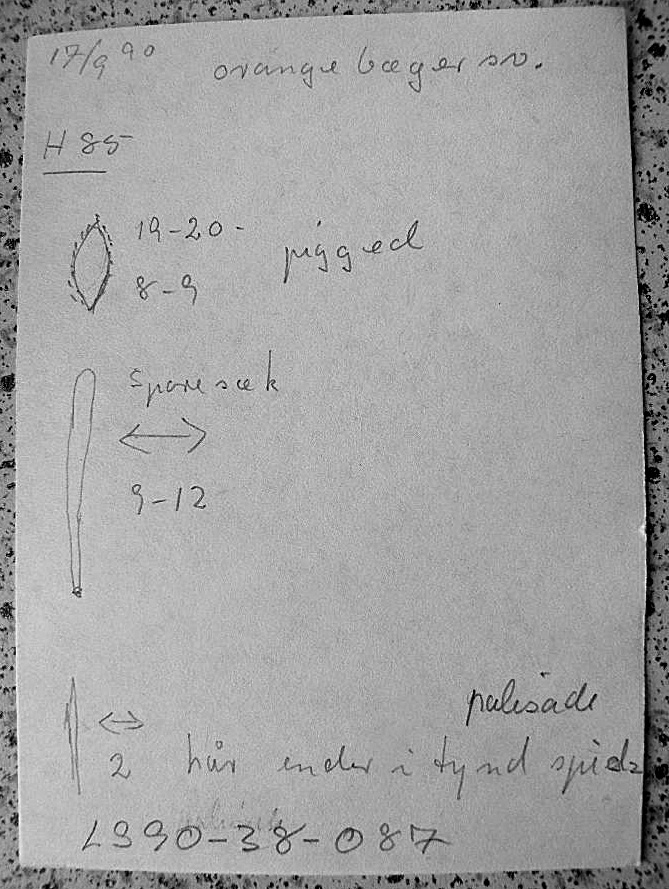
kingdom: Fungi
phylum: Ascomycota
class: Pezizomycetes
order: Pezizales
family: Pyronemataceae
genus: Aleuria
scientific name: Aleuria aurantia
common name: almindelig orangebæger
